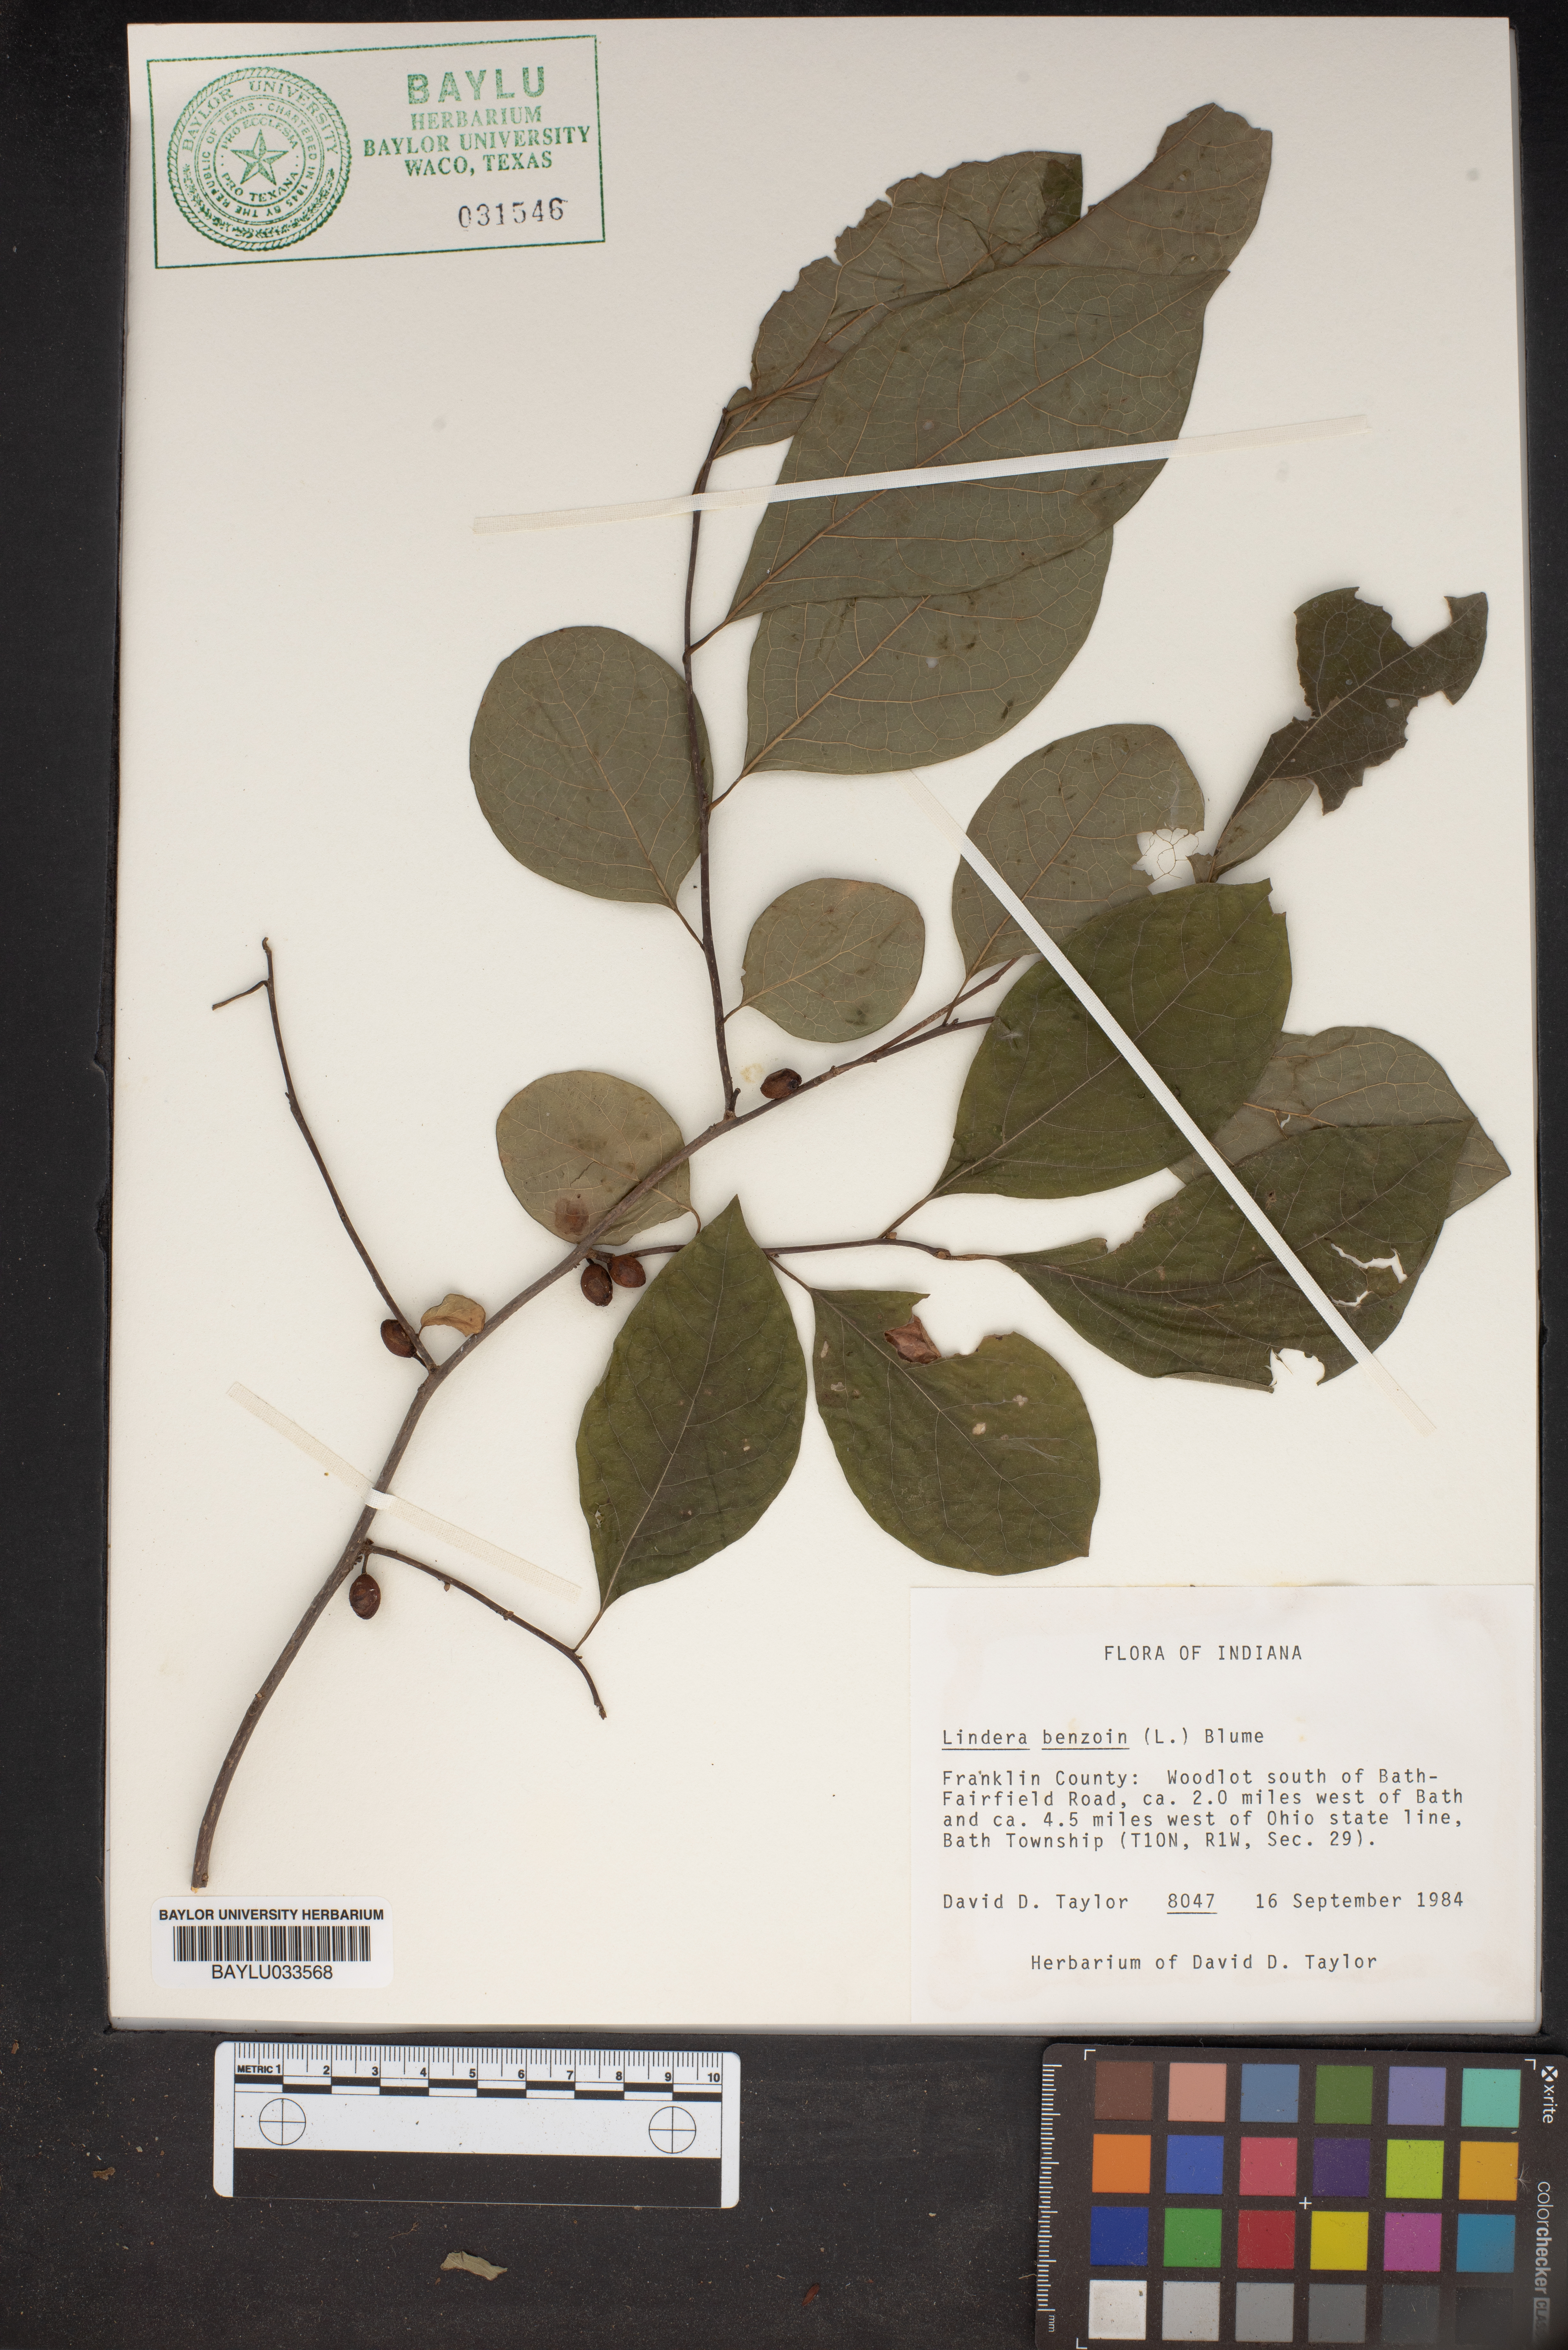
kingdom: Plantae
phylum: Tracheophyta
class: Magnoliopsida
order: Laurales
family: Lauraceae
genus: Lindera
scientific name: Lindera benzoin
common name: Spicebush
